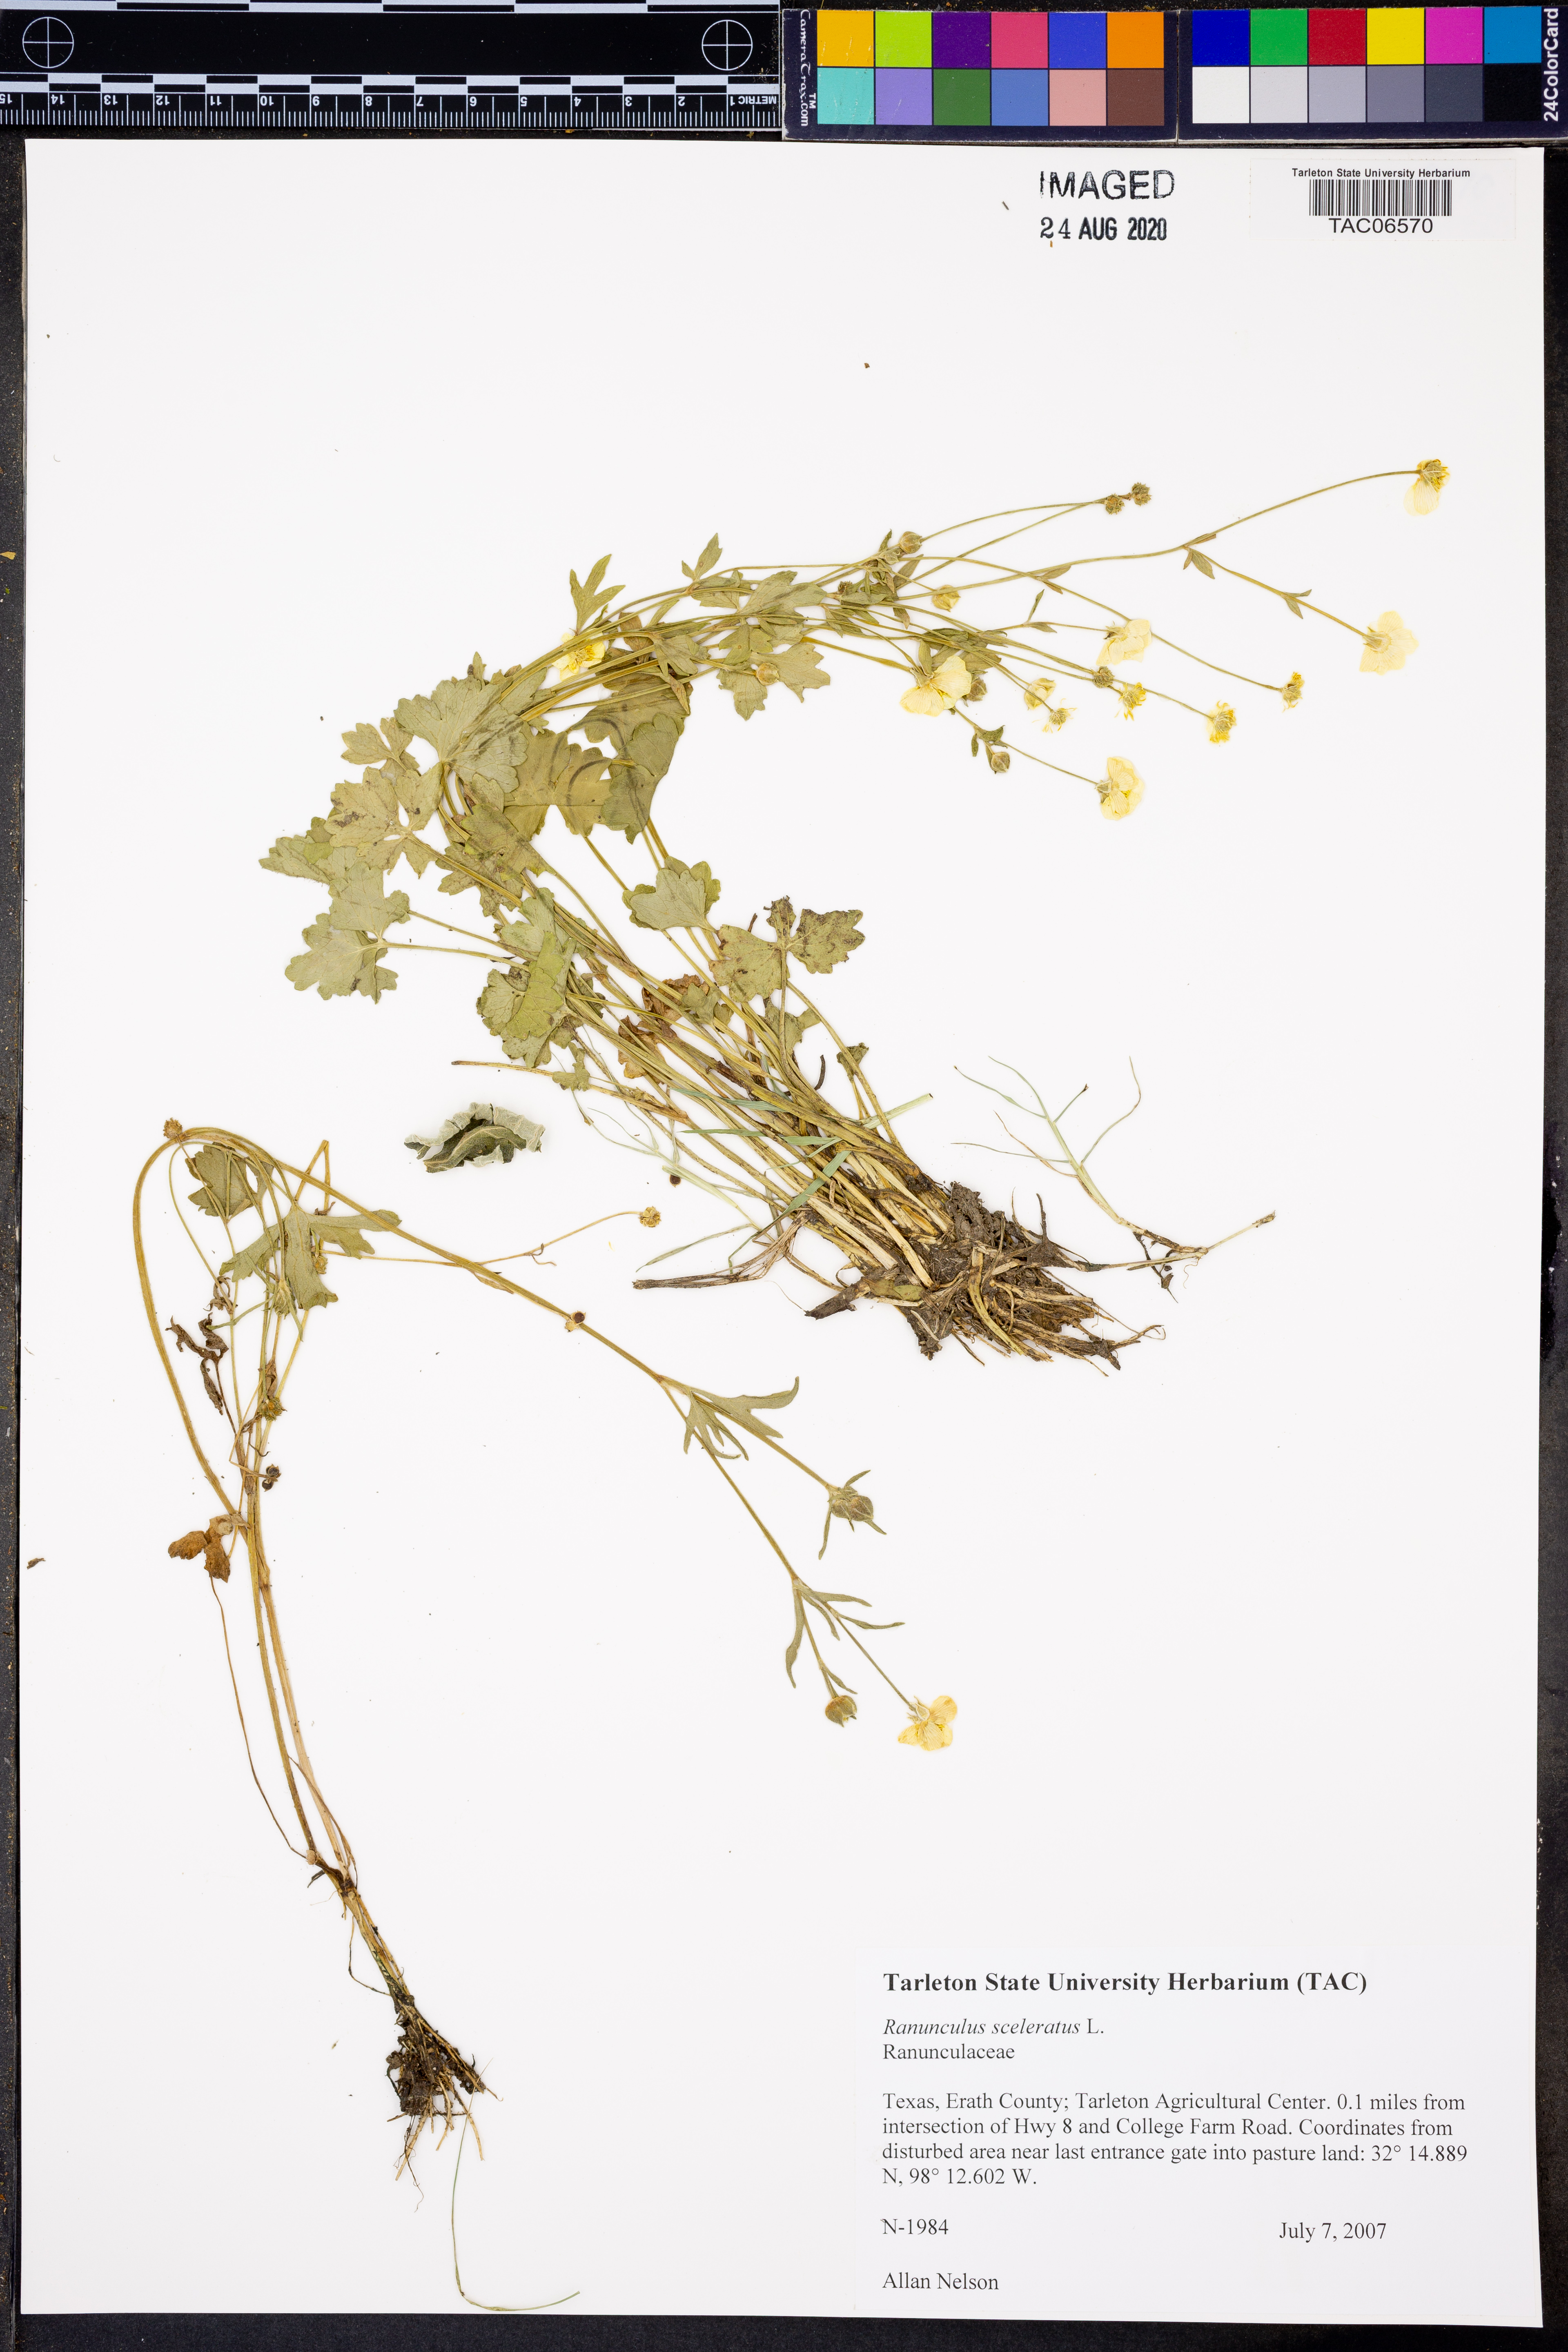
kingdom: Plantae
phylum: Tracheophyta
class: Magnoliopsida
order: Ranunculales
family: Ranunculaceae
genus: Ranunculus
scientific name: Ranunculus sceleratus
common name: Celery-leaved buttercup
